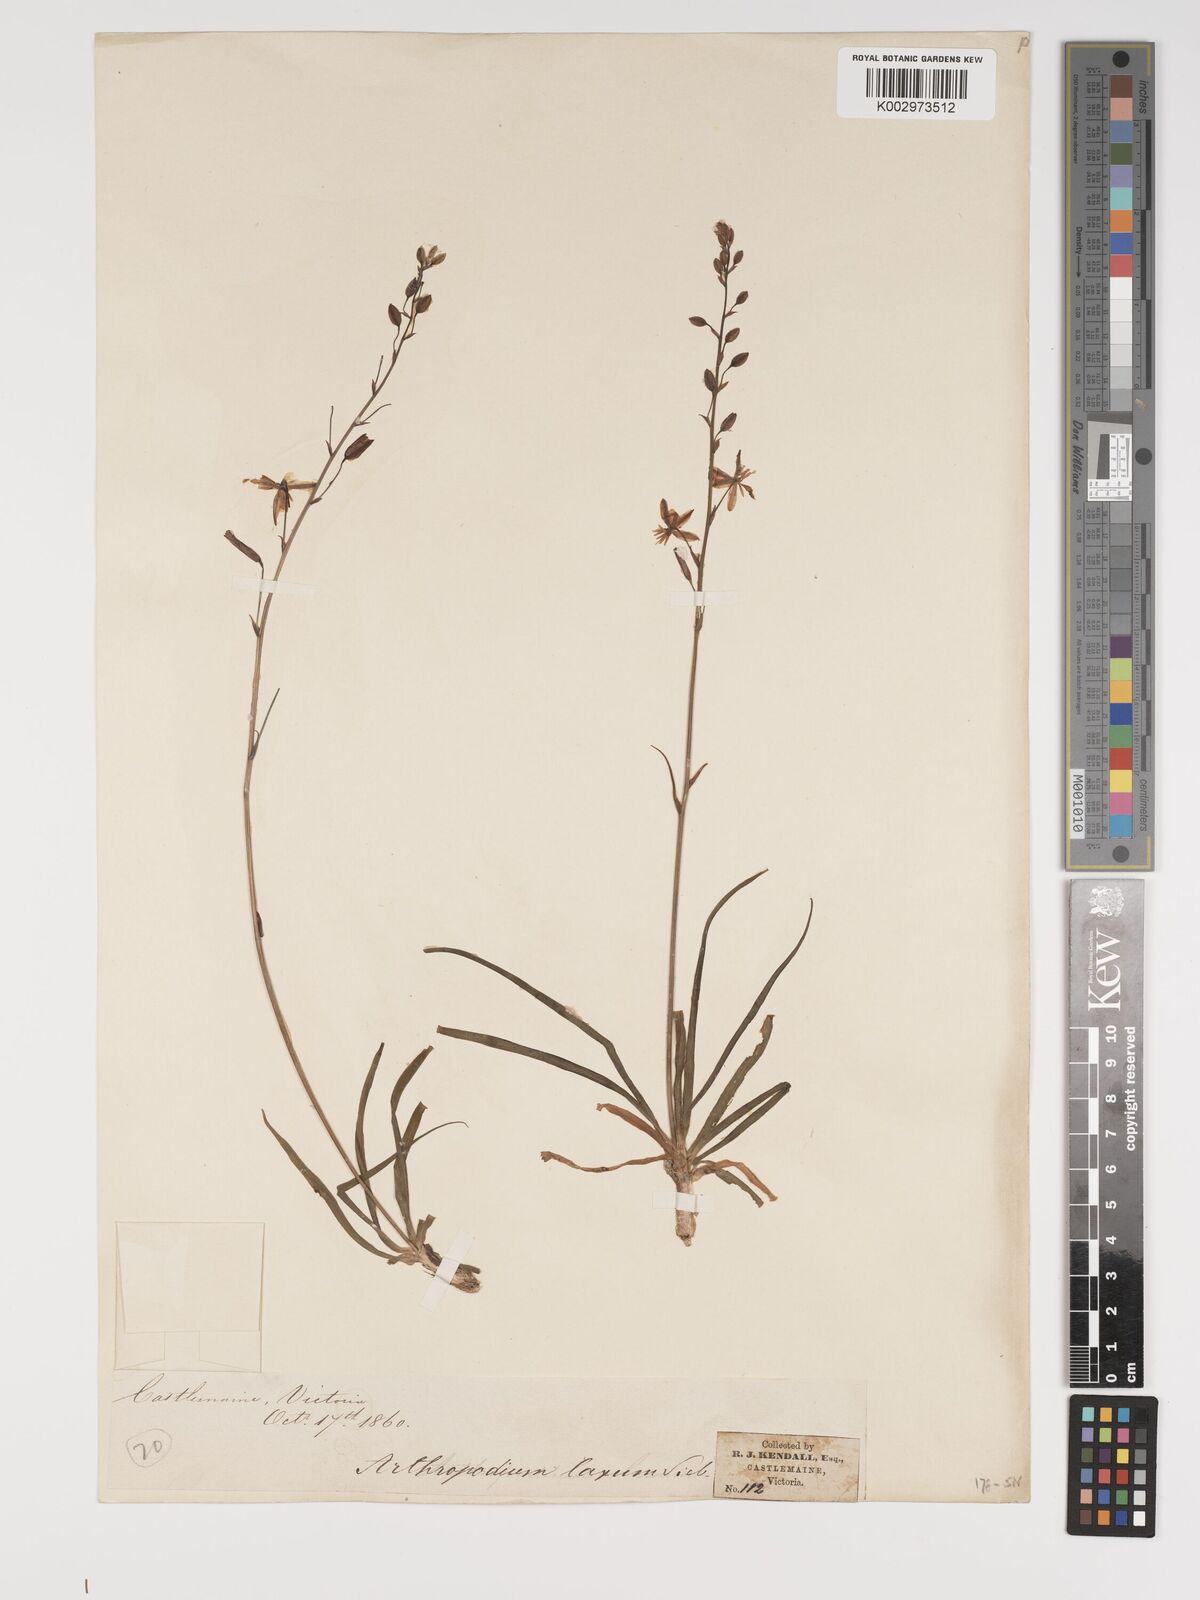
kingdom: Plantae
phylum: Tracheophyta
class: Liliopsida
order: Asparagales
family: Asparagaceae
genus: Dichopogon
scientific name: Dichopogon fimbriatus
